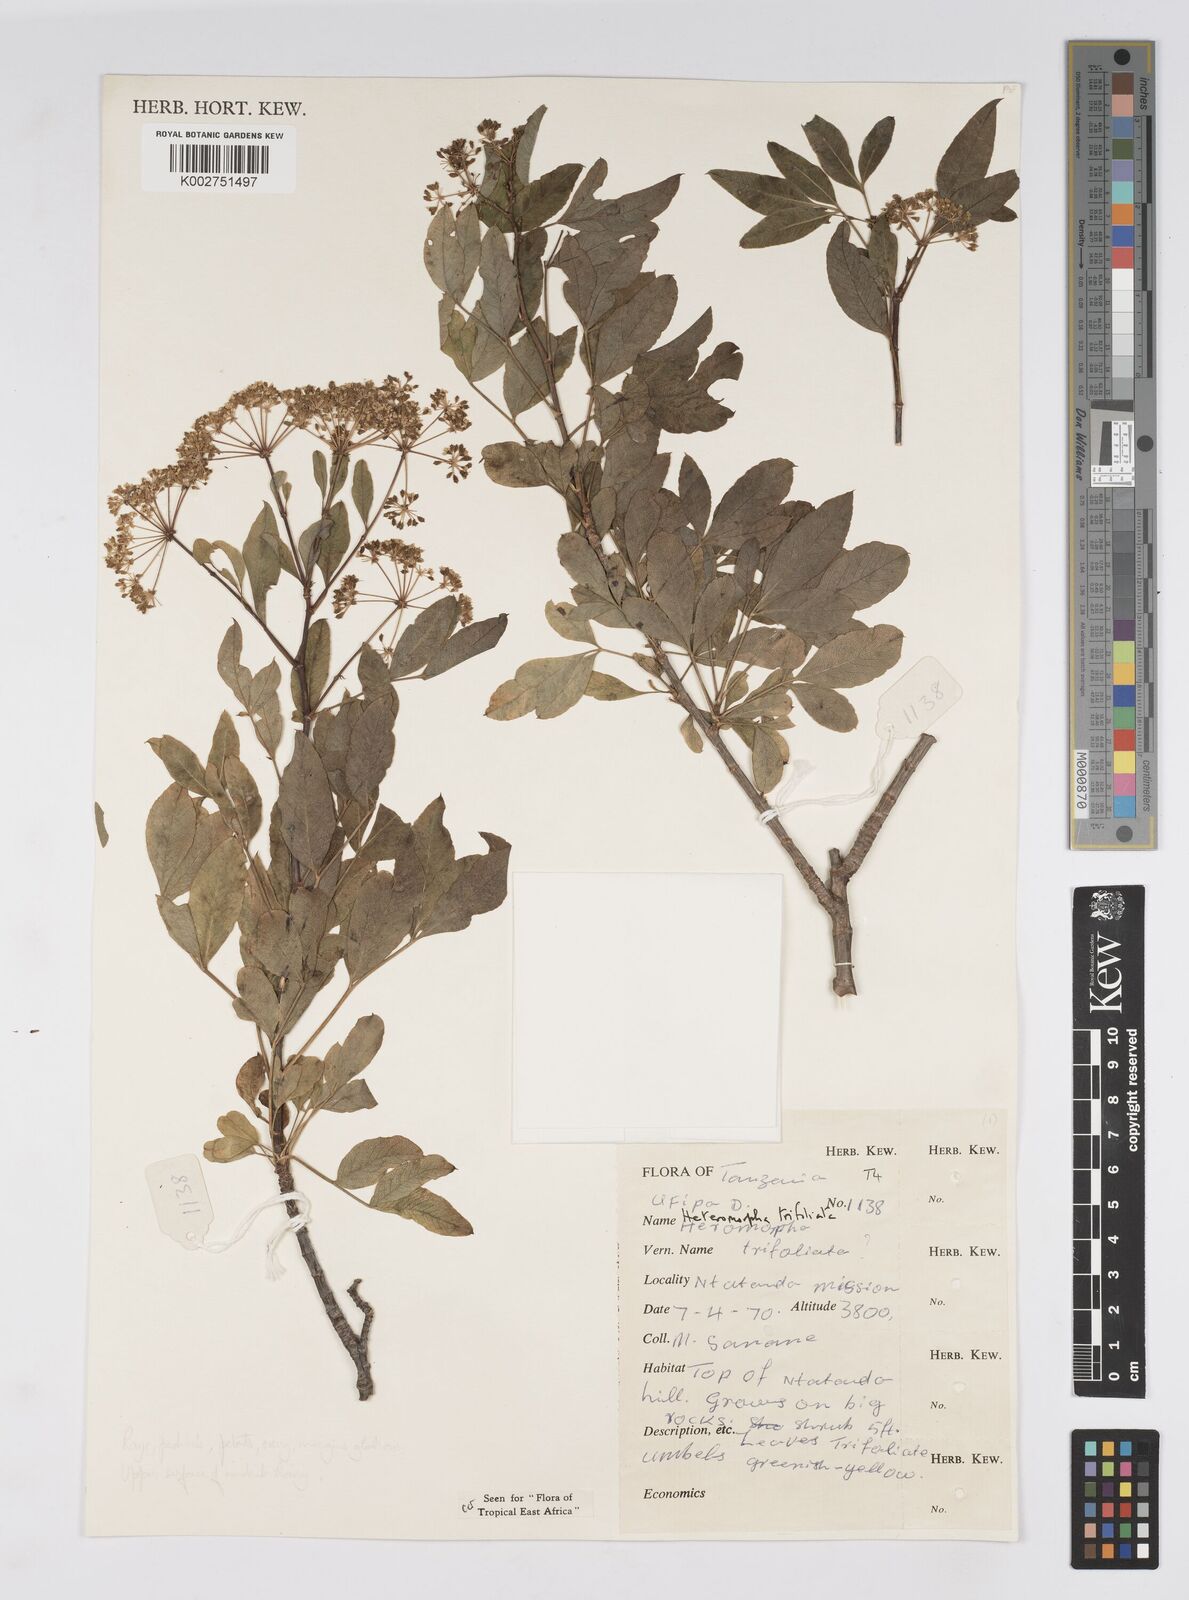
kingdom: Plantae
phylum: Tracheophyta
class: Magnoliopsida
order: Apiales
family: Apiaceae
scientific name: Apiaceae
